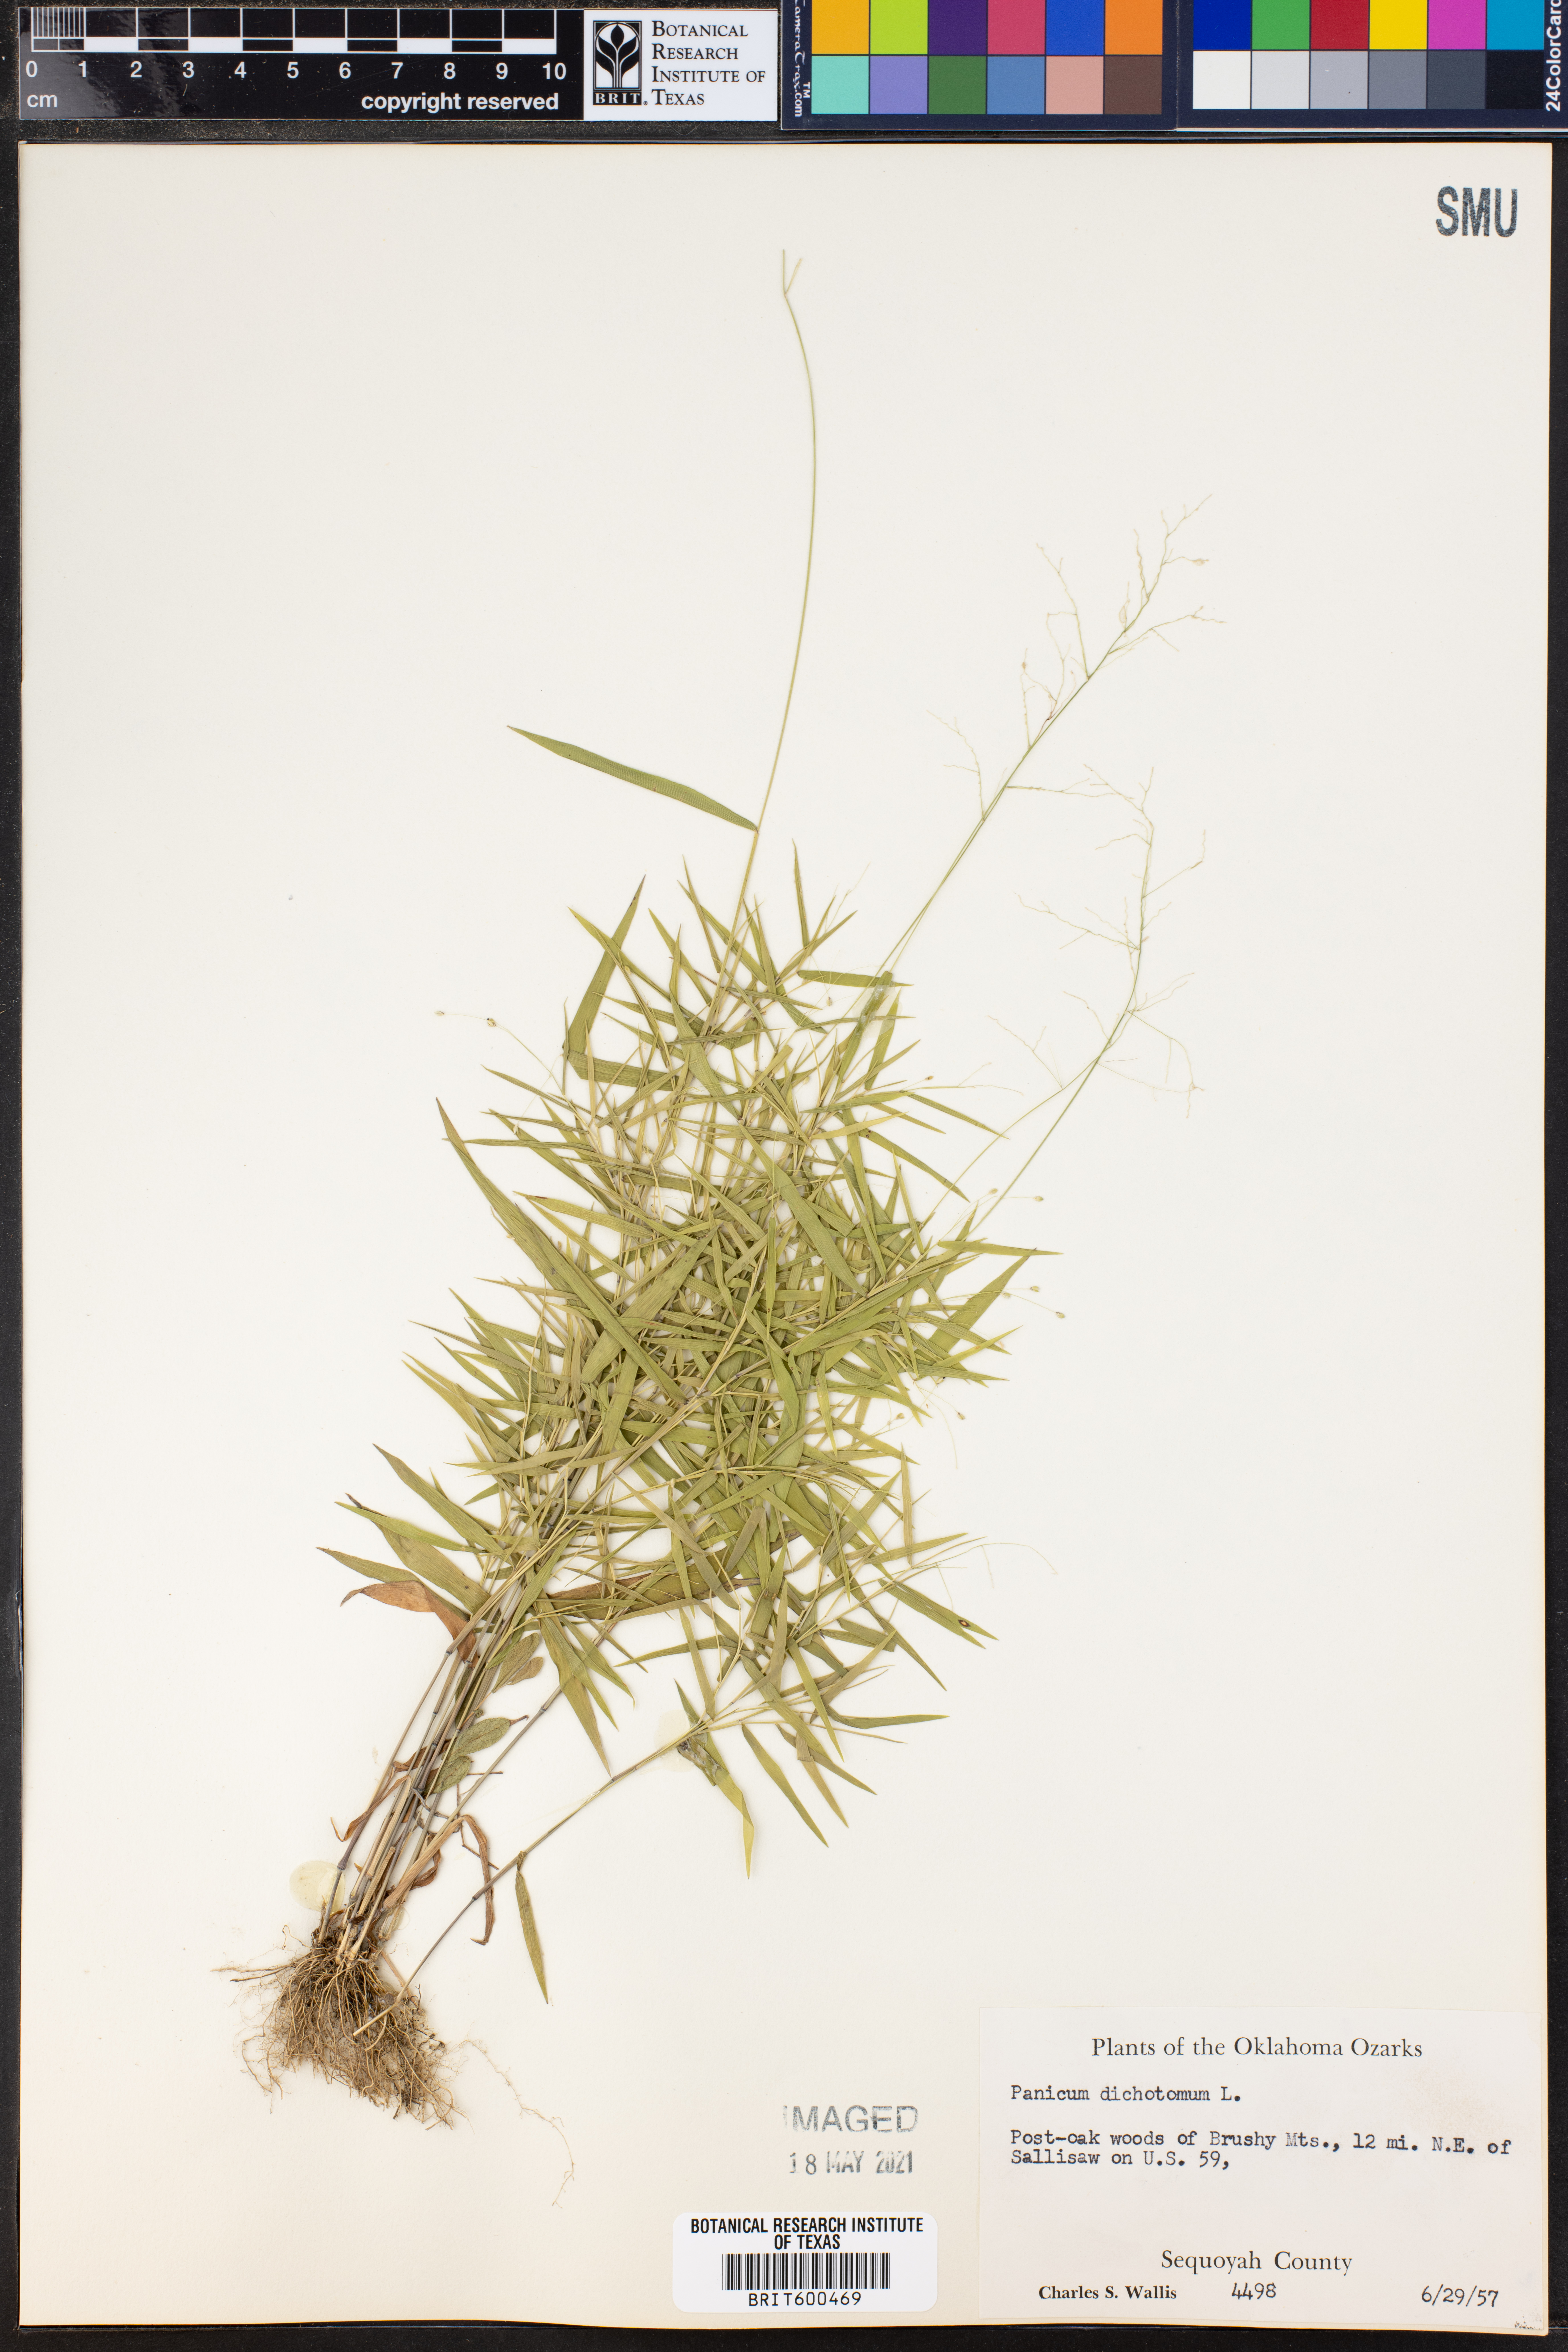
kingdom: Plantae
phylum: Tracheophyta
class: Liliopsida
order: Poales
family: Poaceae
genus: Dichanthelium
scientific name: Dichanthelium dichotomum
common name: Cypress panicgrass
